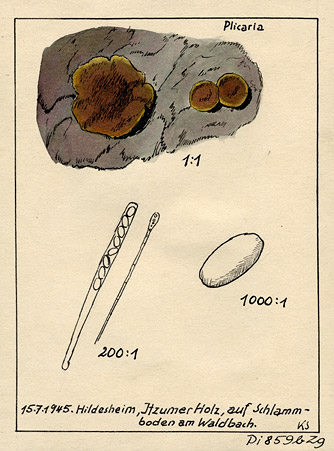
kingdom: Fungi
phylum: Ascomycota
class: Pezizomycetes
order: Pezizales
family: Pyronemataceae
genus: Plicaria
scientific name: Plicaria
